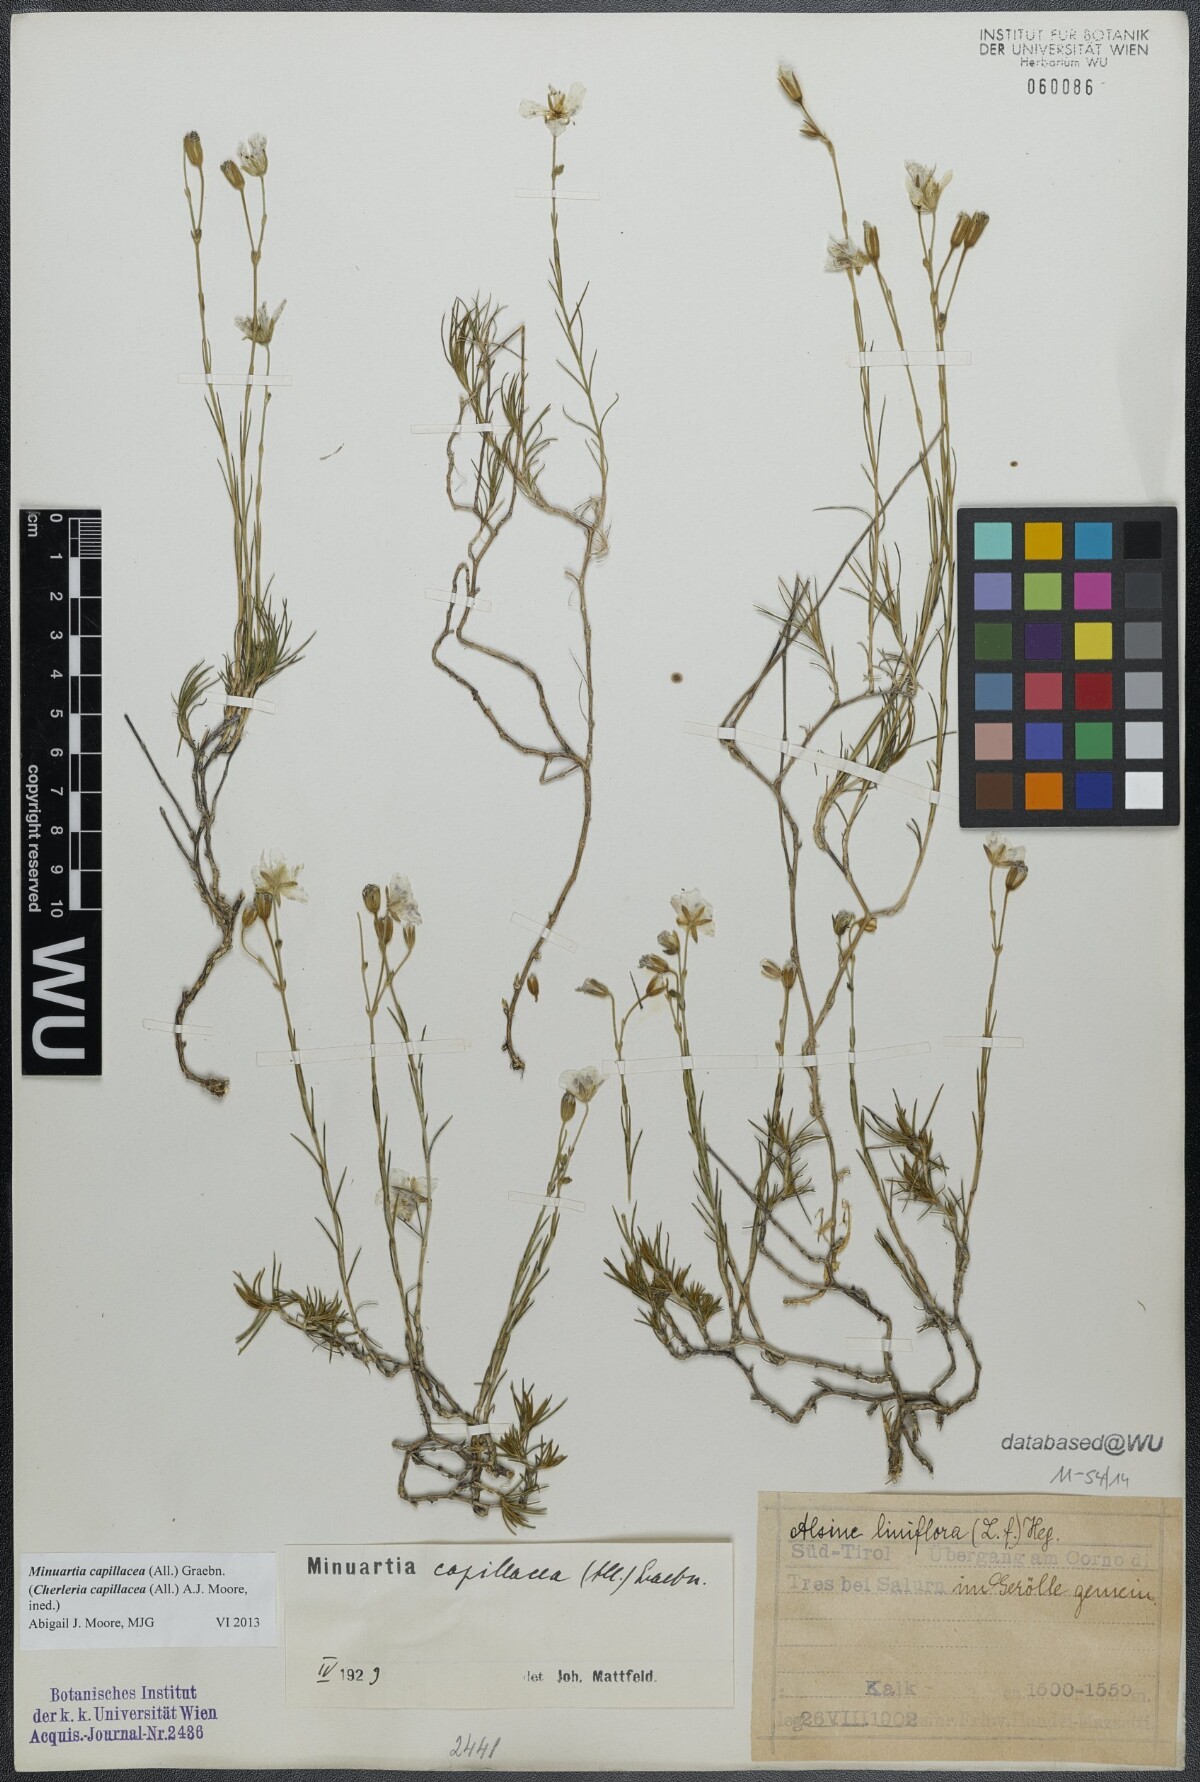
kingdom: Plantae
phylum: Tracheophyta
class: Magnoliopsida
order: Caryophyllales
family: Caryophyllaceae
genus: Cherleria
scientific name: Cherleria capillacea
